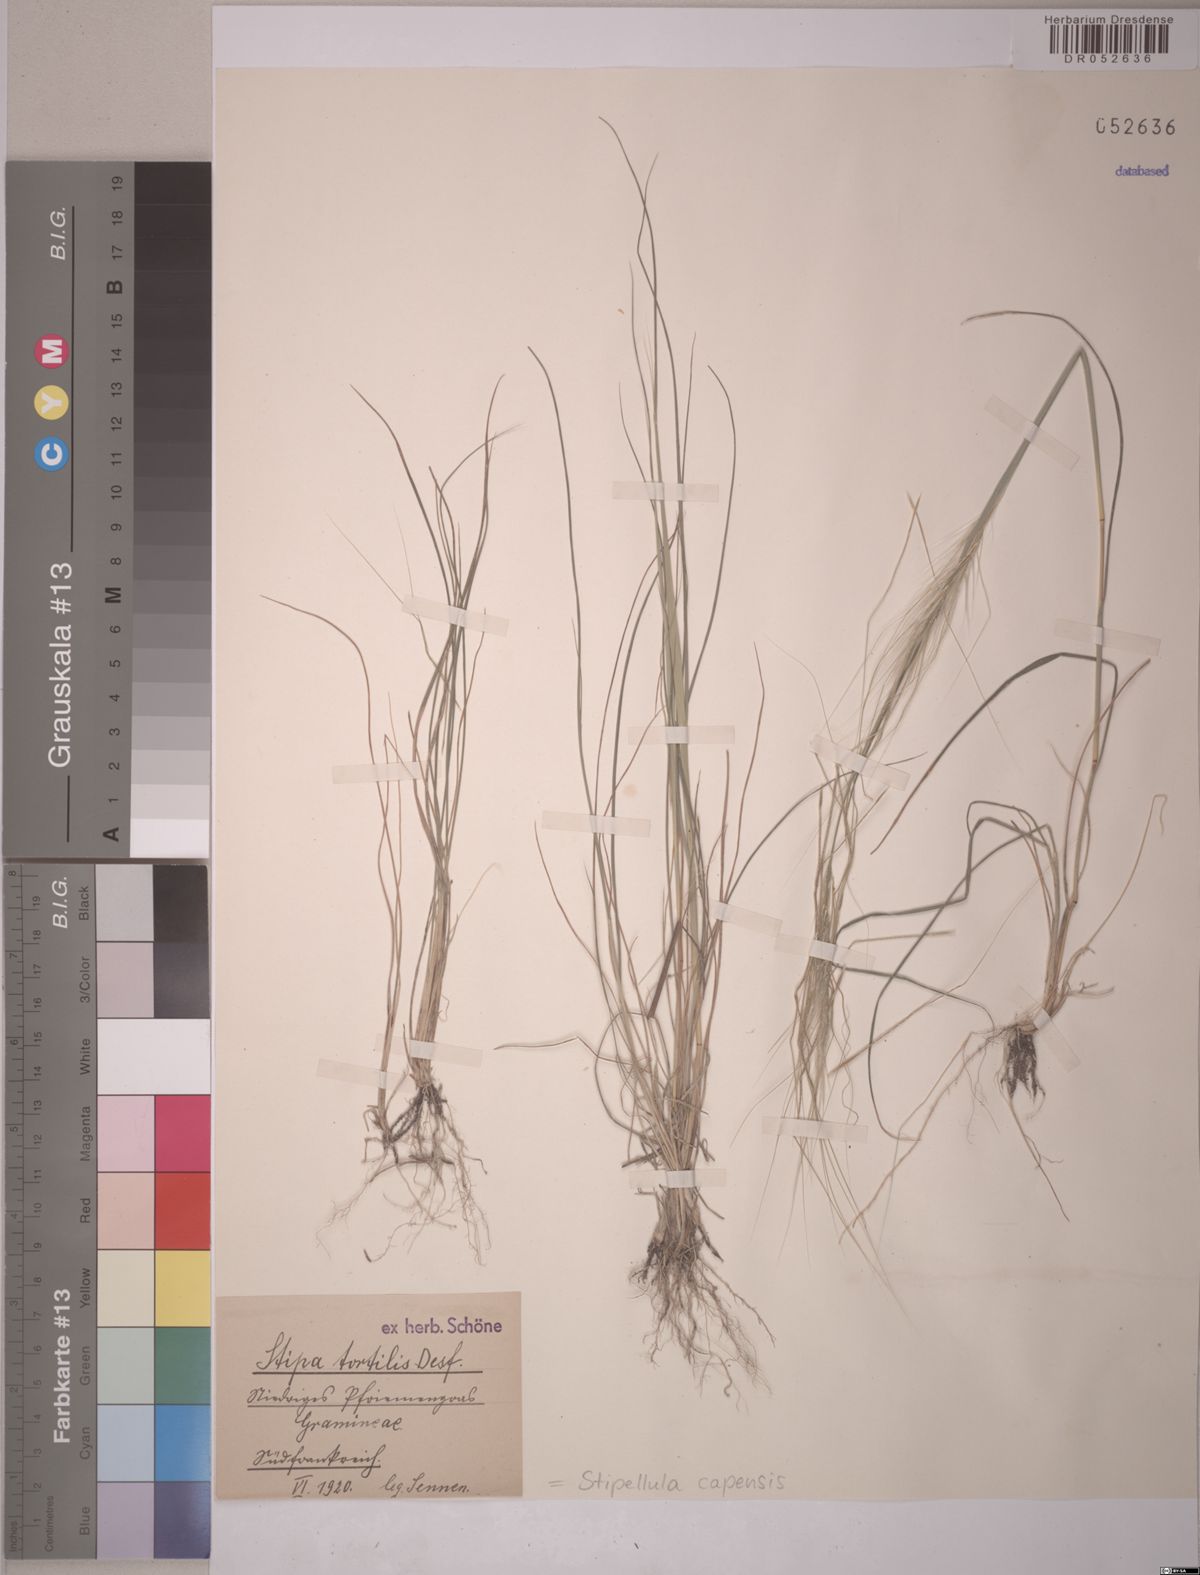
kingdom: Plantae
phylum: Tracheophyta
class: Liliopsida
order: Poales
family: Poaceae
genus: Stipellula
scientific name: Stipellula capensis
